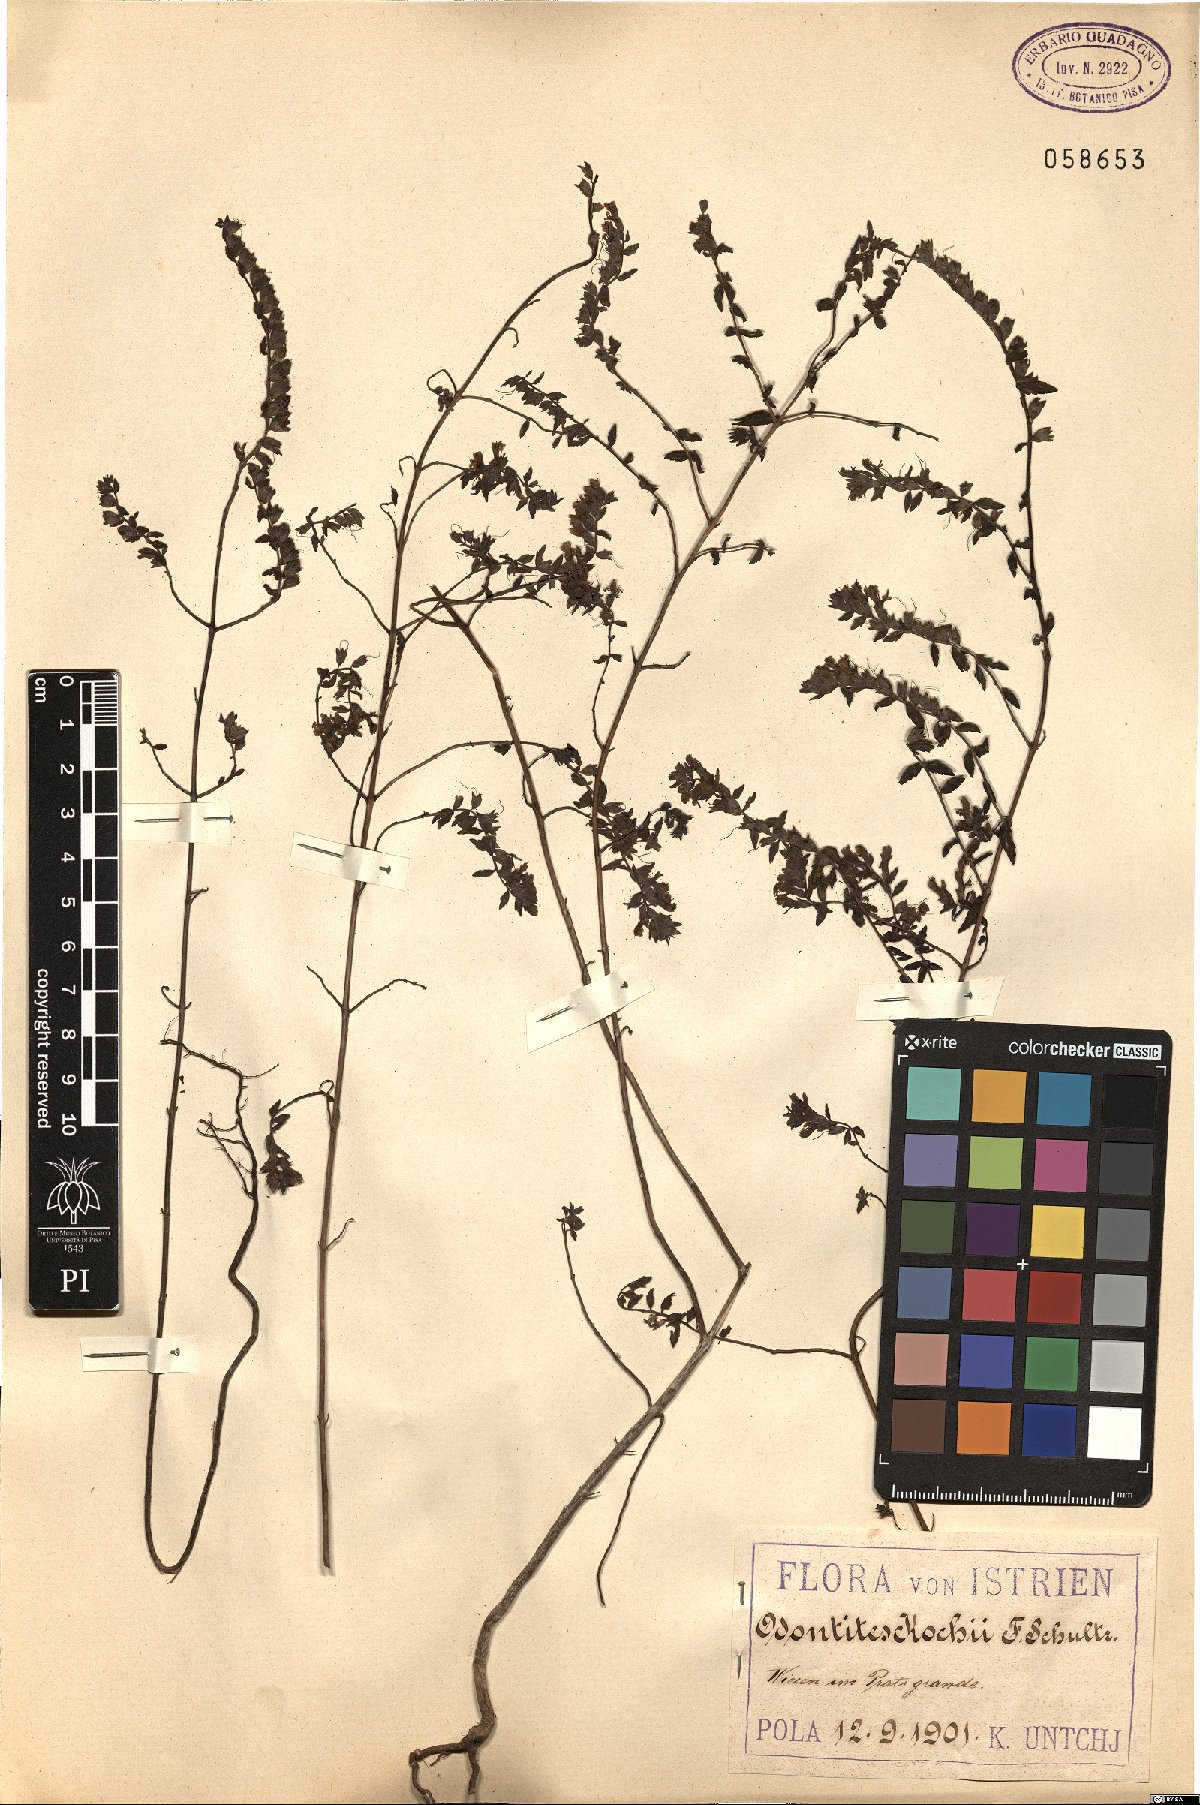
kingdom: Plantae
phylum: Tracheophyta
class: Magnoliopsida
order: Lamiales
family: Orobanchaceae
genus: Odontites
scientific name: Odontites vernus
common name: Red bartsia
